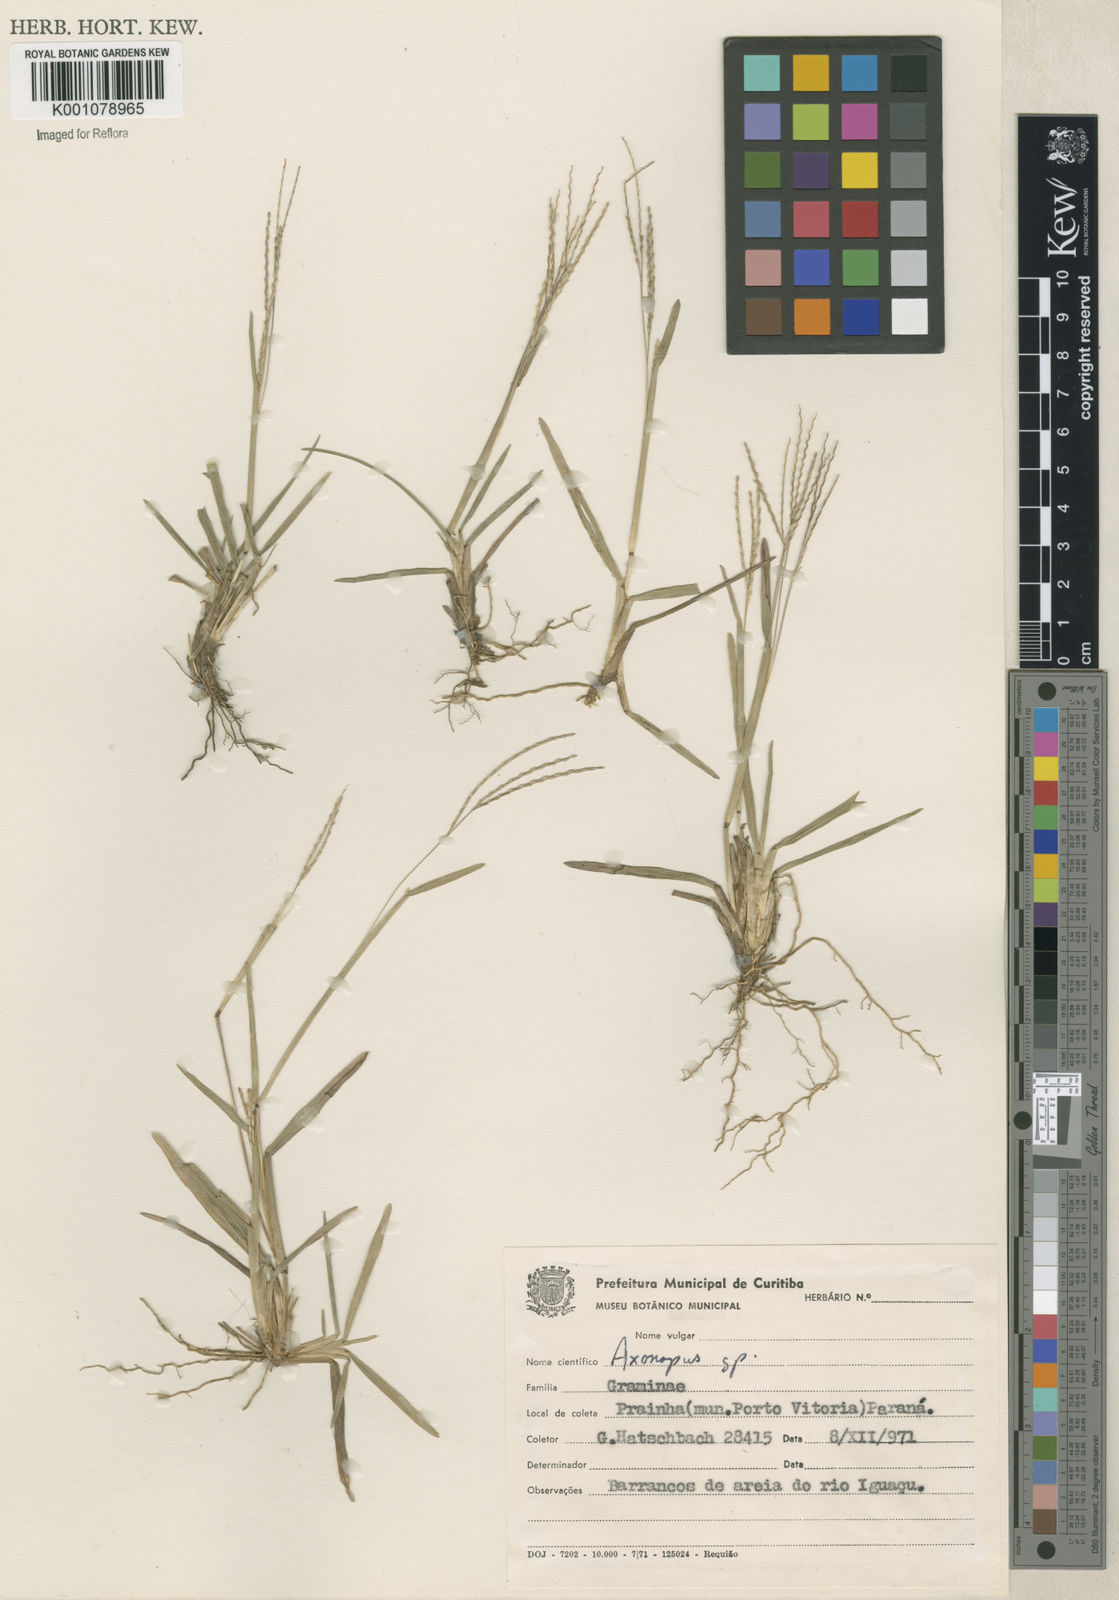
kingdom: Plantae
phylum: Tracheophyta
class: Liliopsida
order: Poales
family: Poaceae
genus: Axonopus
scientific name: Axonopus fissifolius
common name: Common carpetgrass
